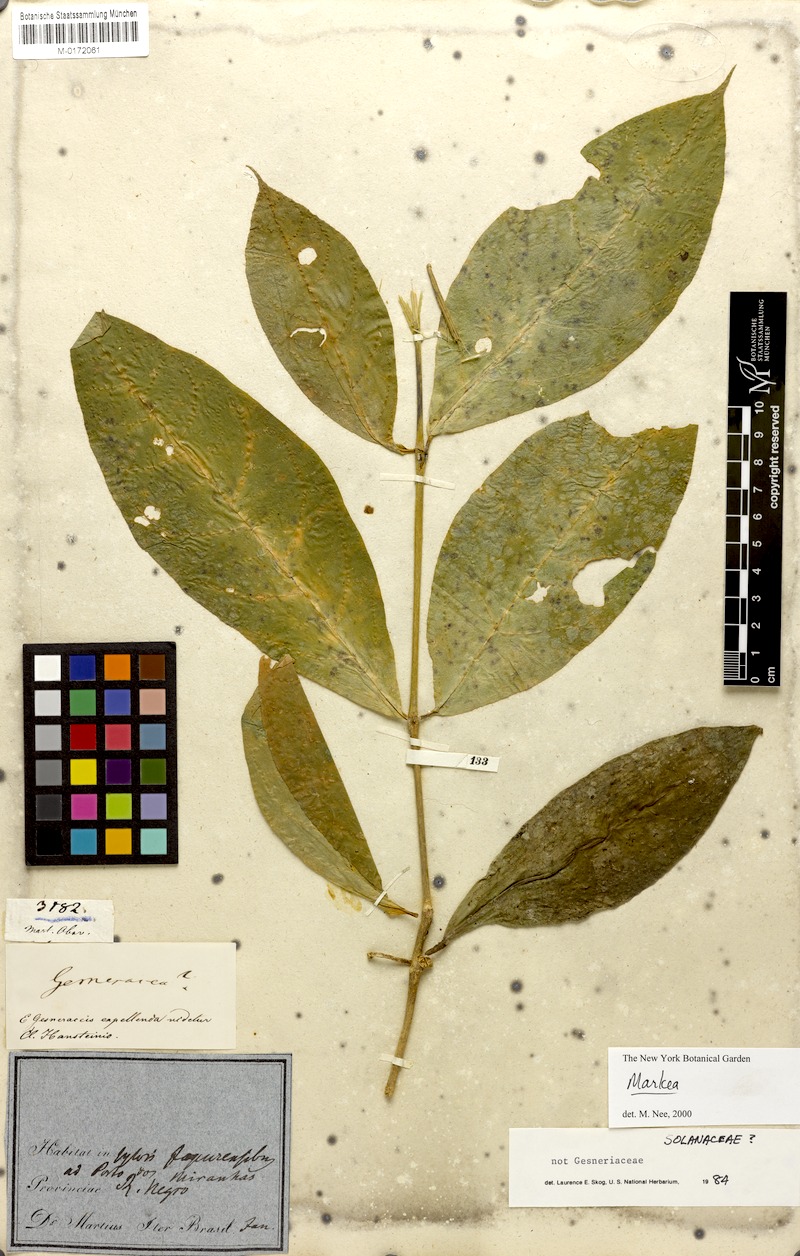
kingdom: Plantae
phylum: Tracheophyta
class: Magnoliopsida
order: Solanales
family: Solanaceae
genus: Markea
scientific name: Markea
